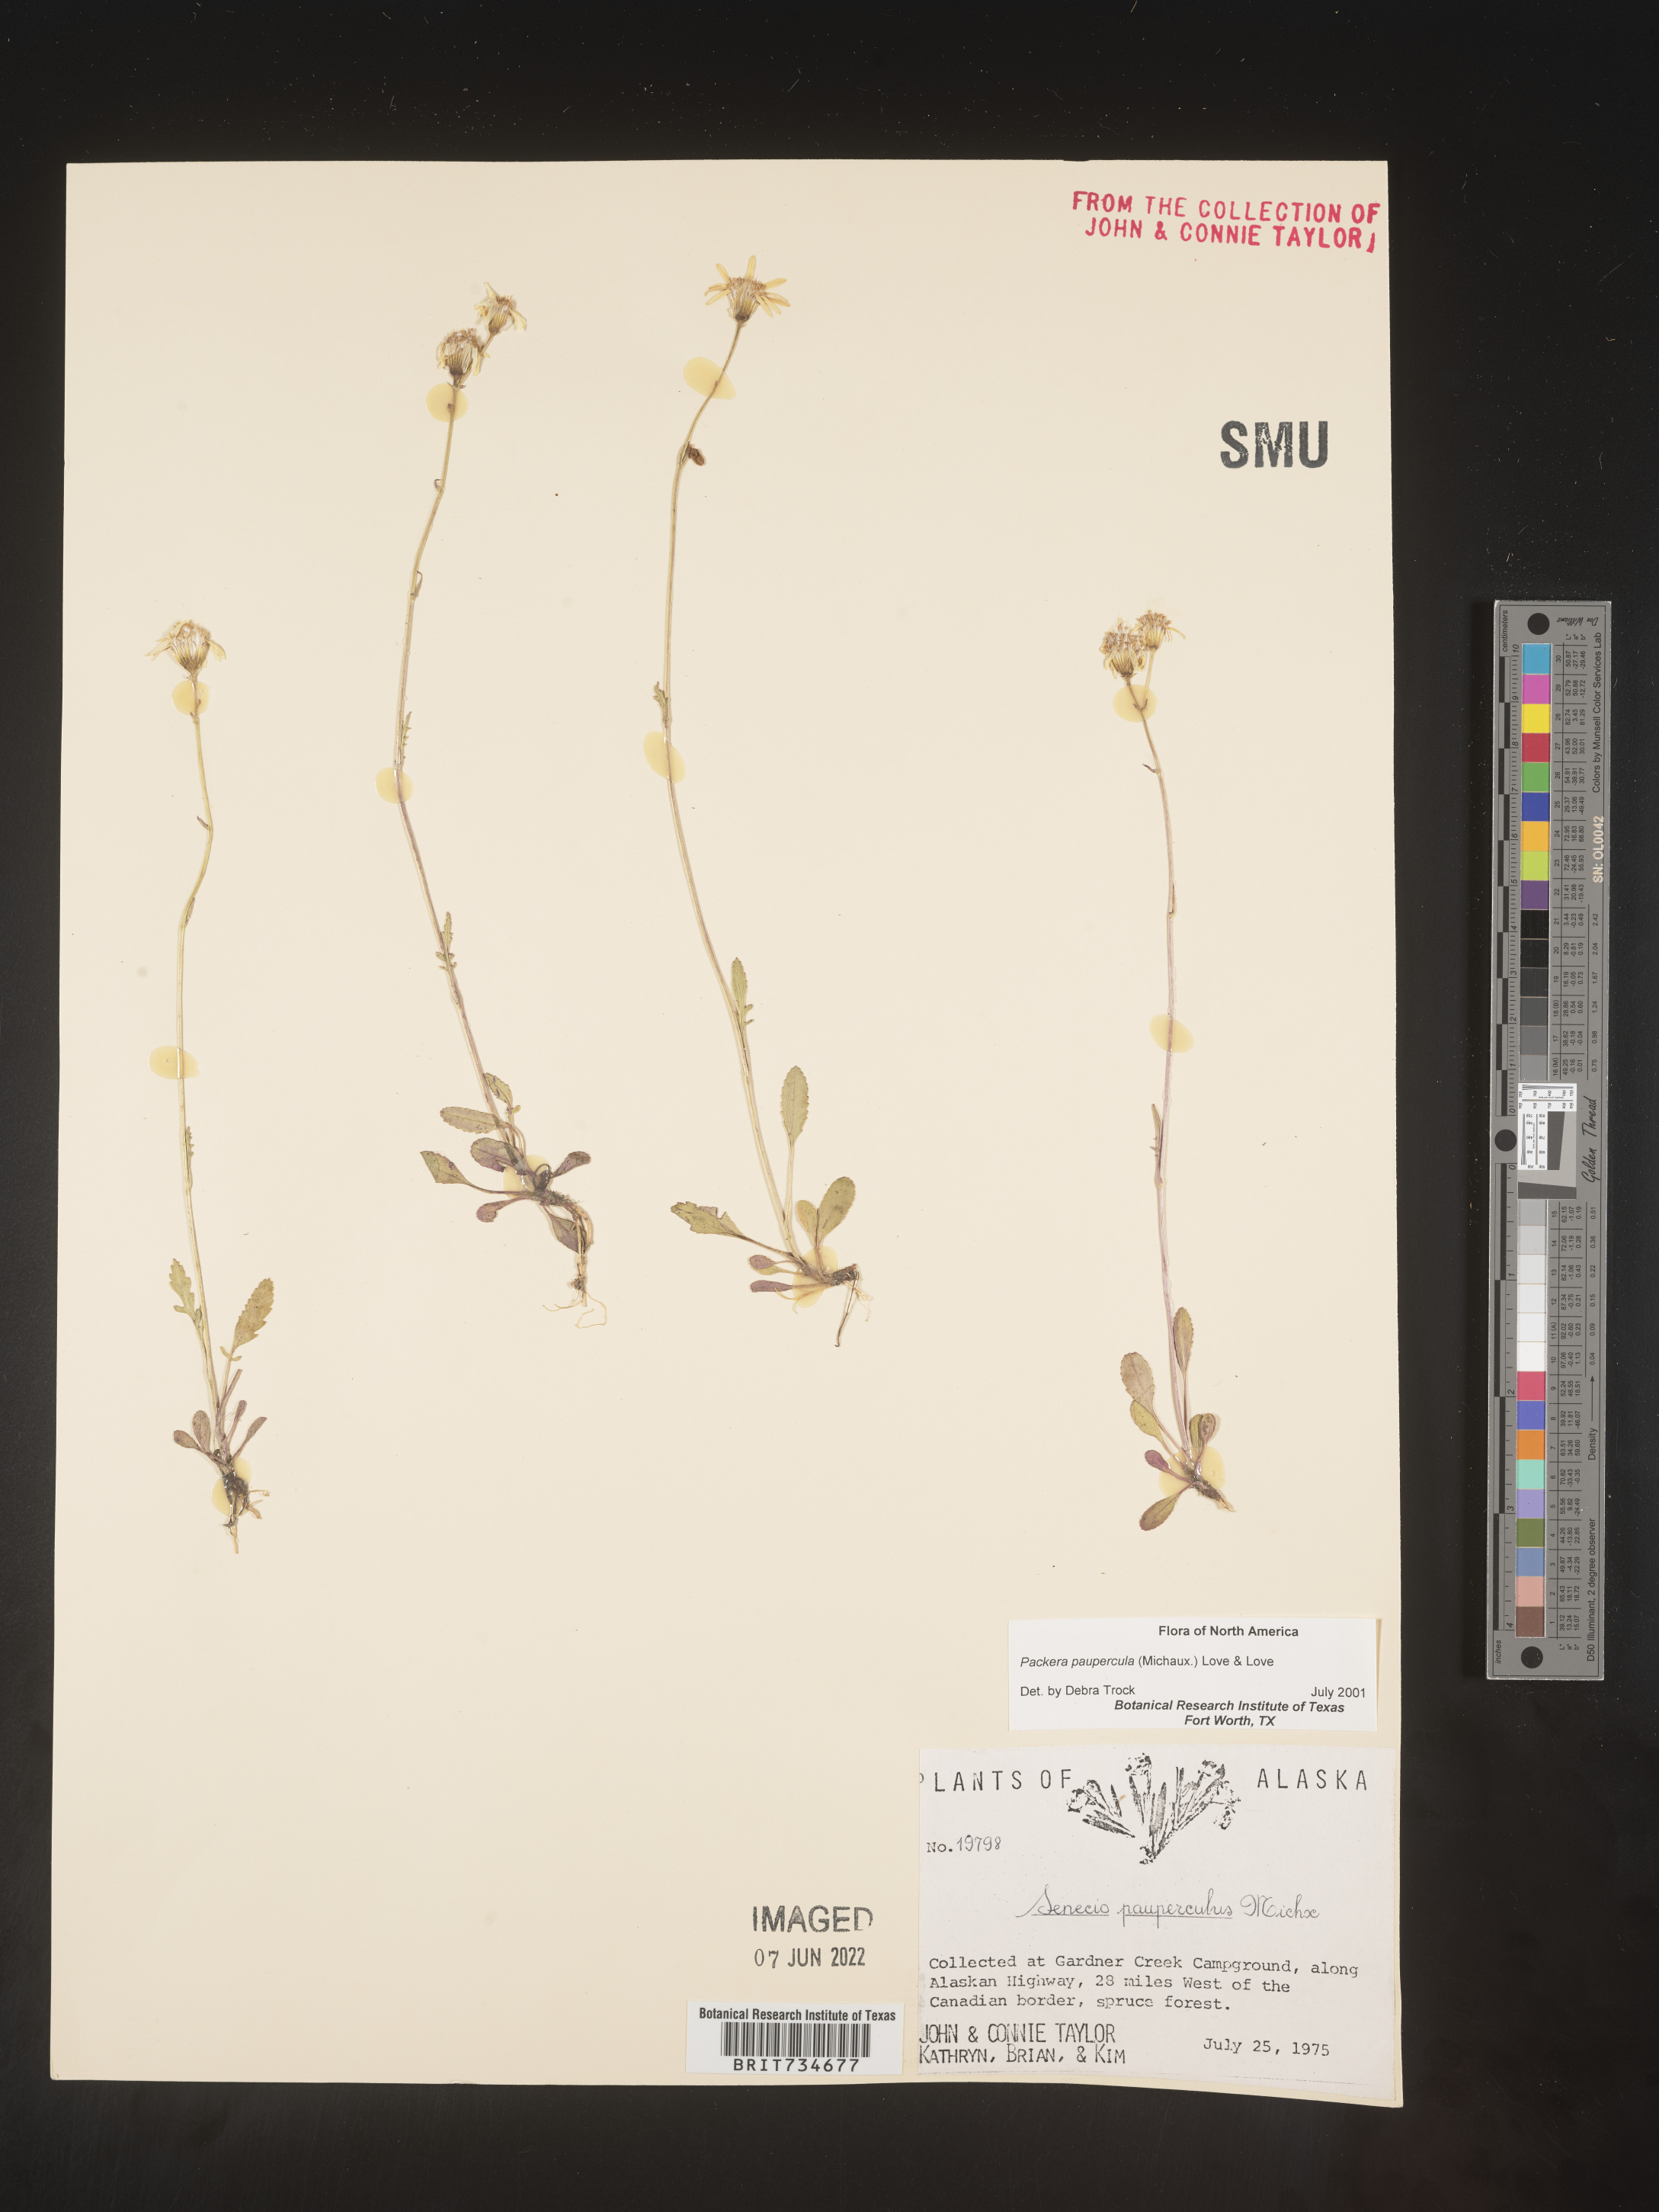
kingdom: Plantae
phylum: Tracheophyta
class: Magnoliopsida
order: Asterales
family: Asteraceae
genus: Packera
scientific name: Packera paupercula
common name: Balsam groundsel
